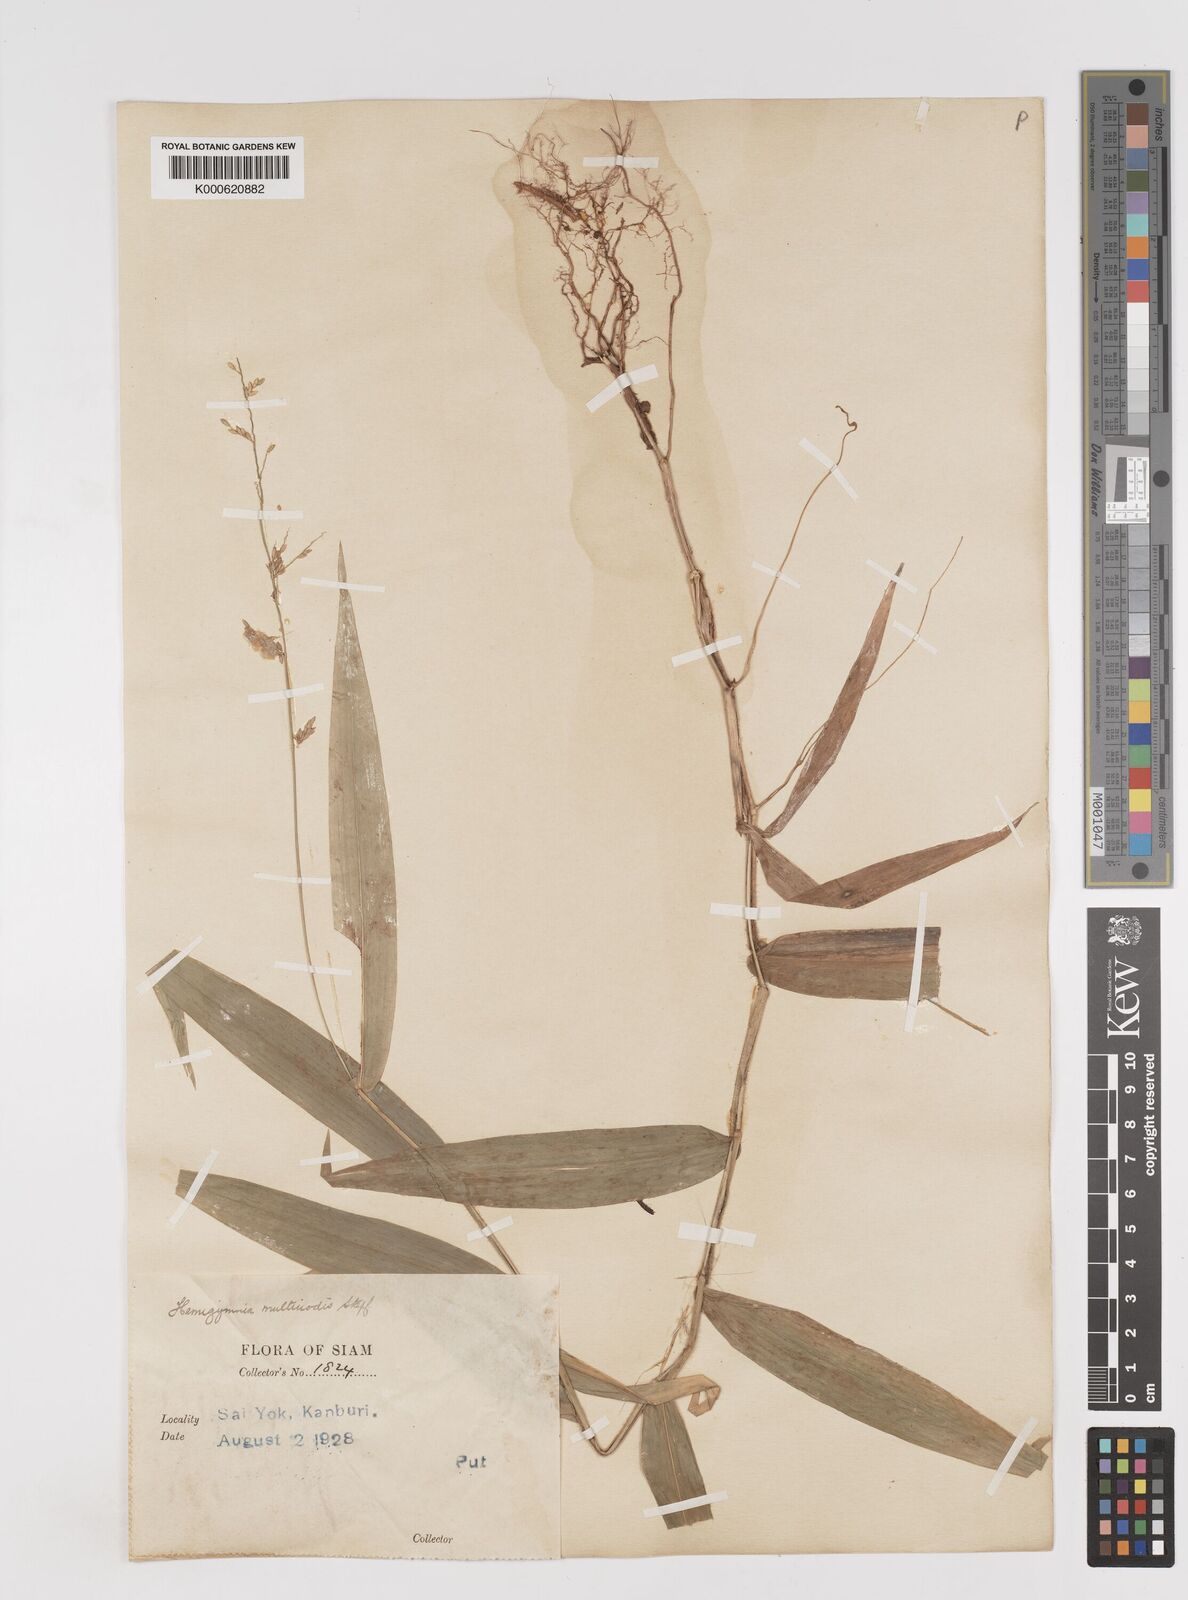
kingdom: Plantae
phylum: Tracheophyta
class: Liliopsida
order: Poales
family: Poaceae
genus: Ottochloa
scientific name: Ottochloa nodosa
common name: Slender-panic grass
